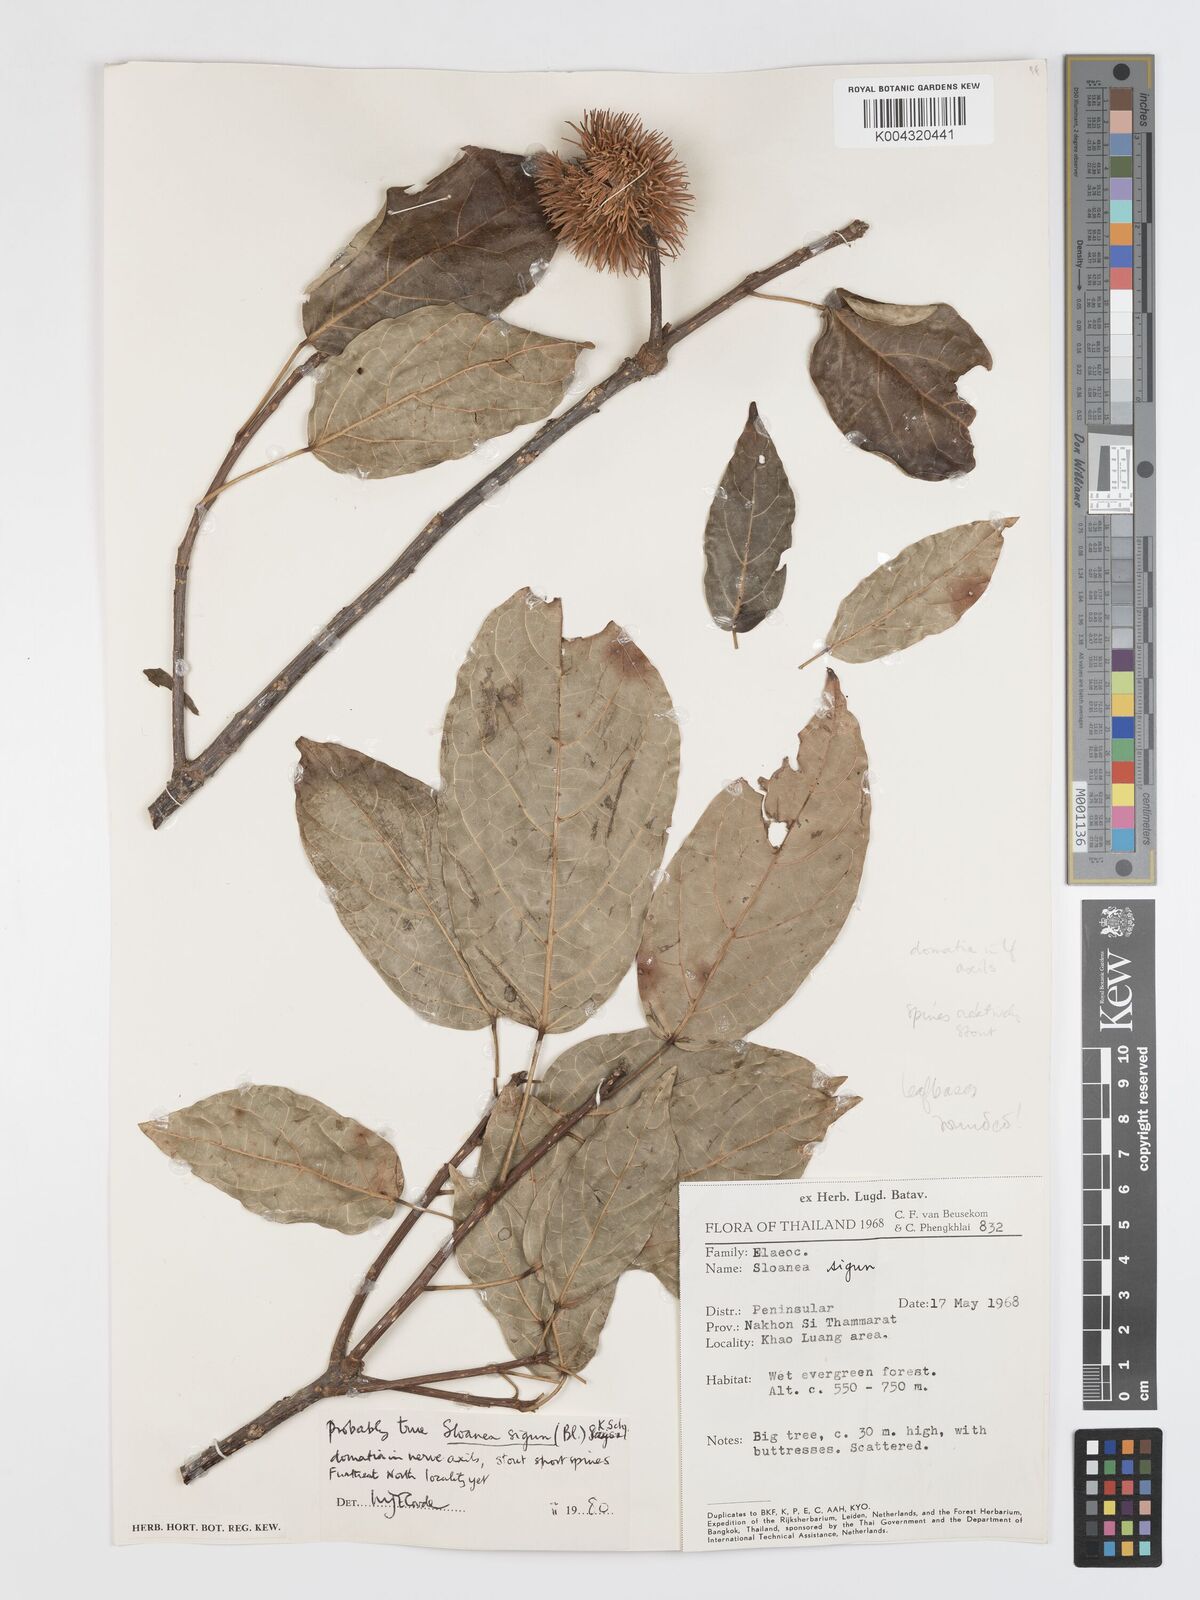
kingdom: Plantae
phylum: Tracheophyta
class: Magnoliopsida
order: Oxalidales
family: Elaeocarpaceae
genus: Sloanea
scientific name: Sloanea sigun
